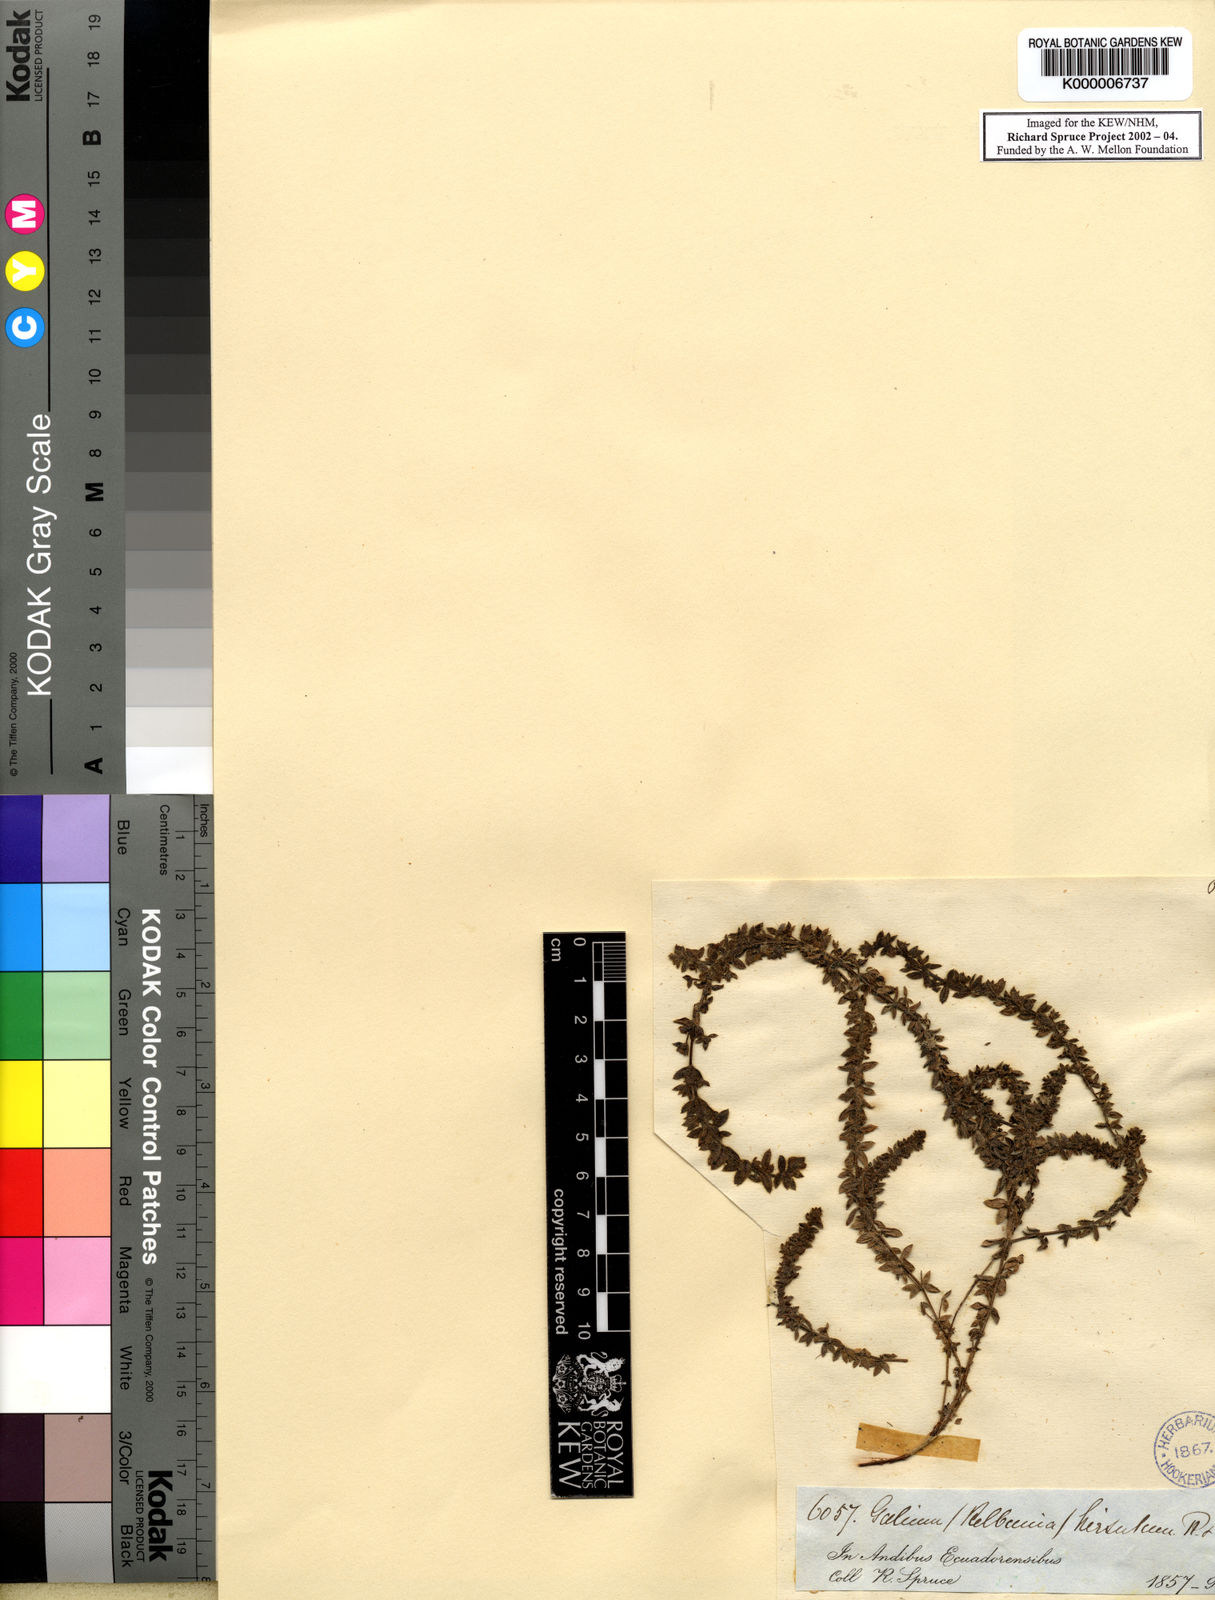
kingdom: Plantae
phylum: Tracheophyta
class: Magnoliopsida
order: Gentianales
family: Rubiaceae
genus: Galium
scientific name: Galium corymbosum
